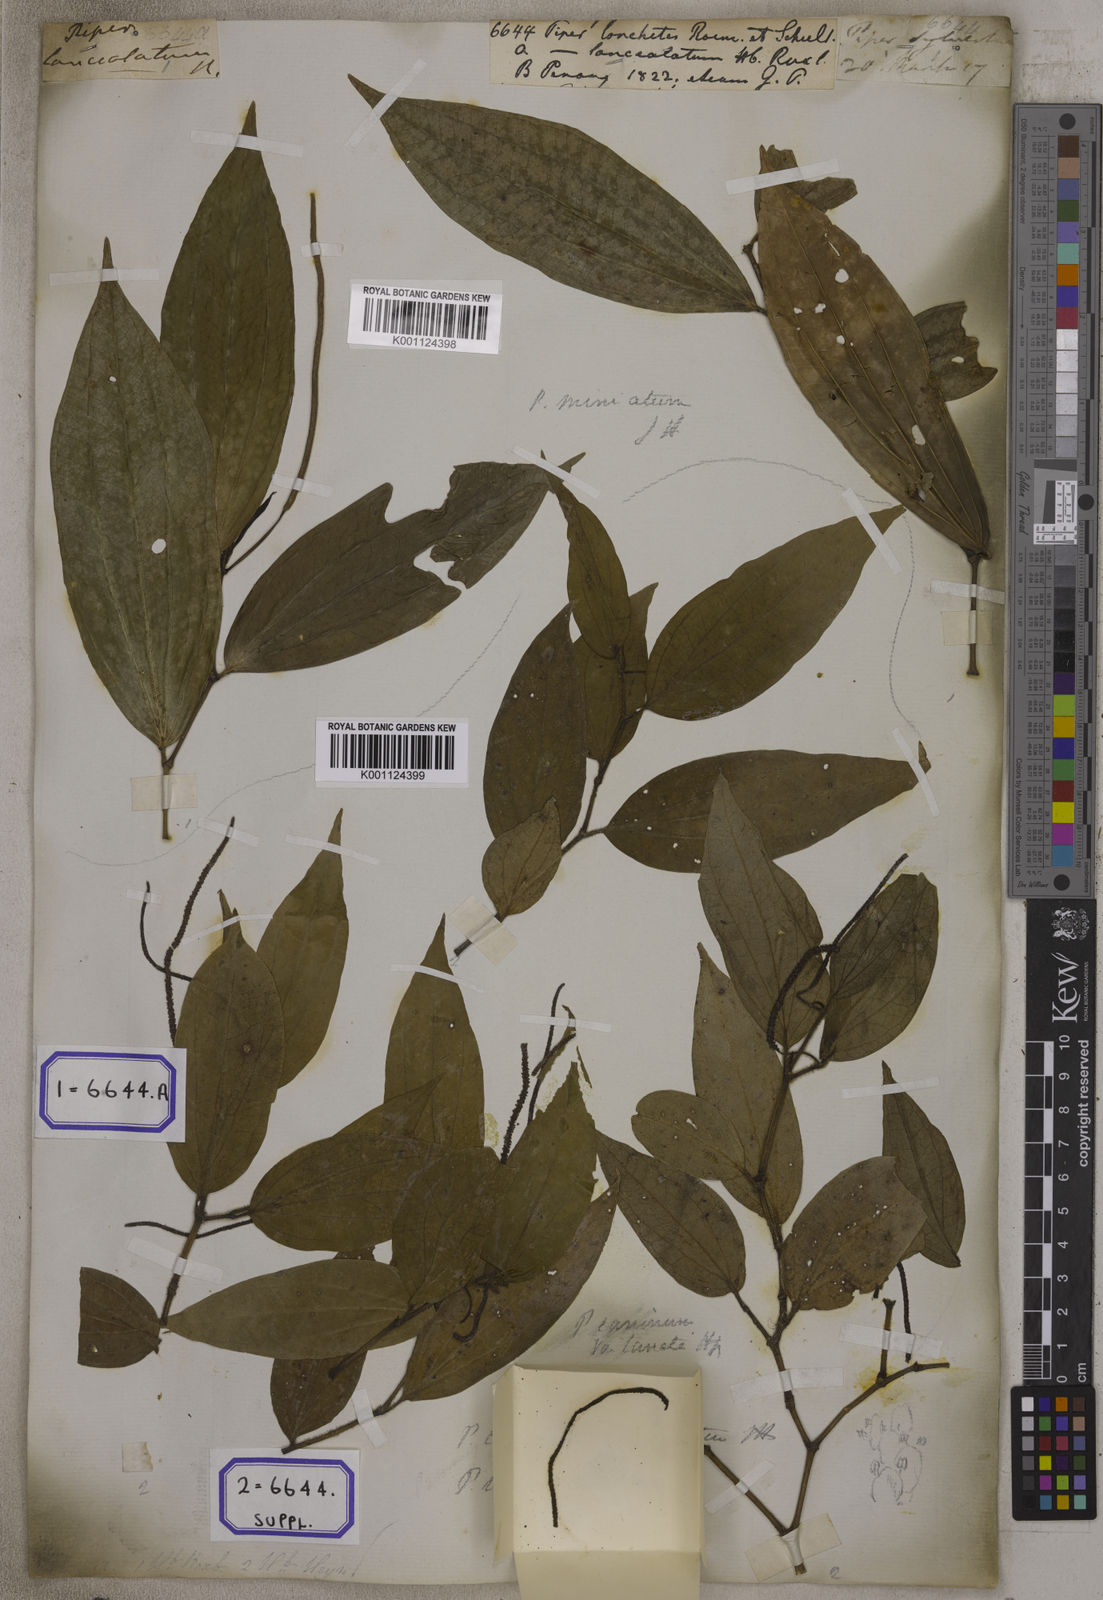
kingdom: Plantae
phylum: Tracheophyta
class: Magnoliopsida
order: Piperales
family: Piperaceae
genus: Piper
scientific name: Piper
